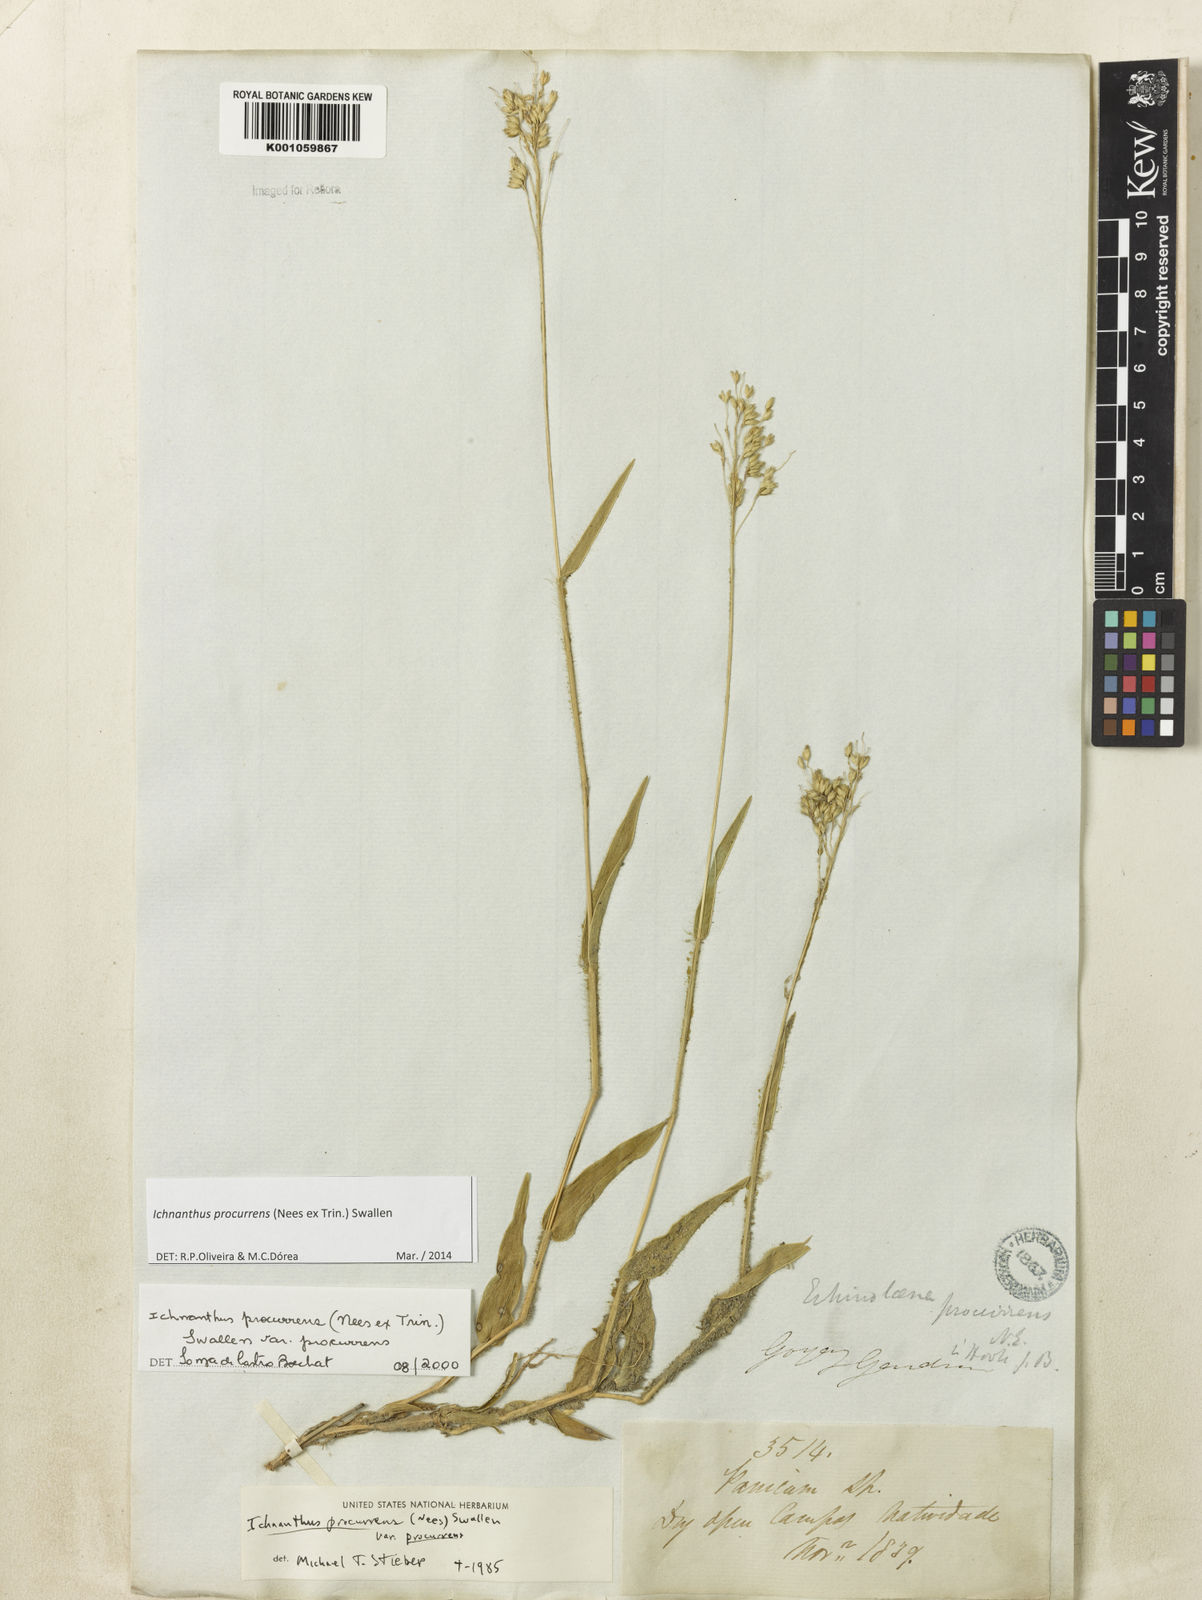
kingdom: Plantae
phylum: Tracheophyta
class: Liliopsida
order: Poales
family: Poaceae
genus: Oedochloa
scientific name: Oedochloa procurrens
